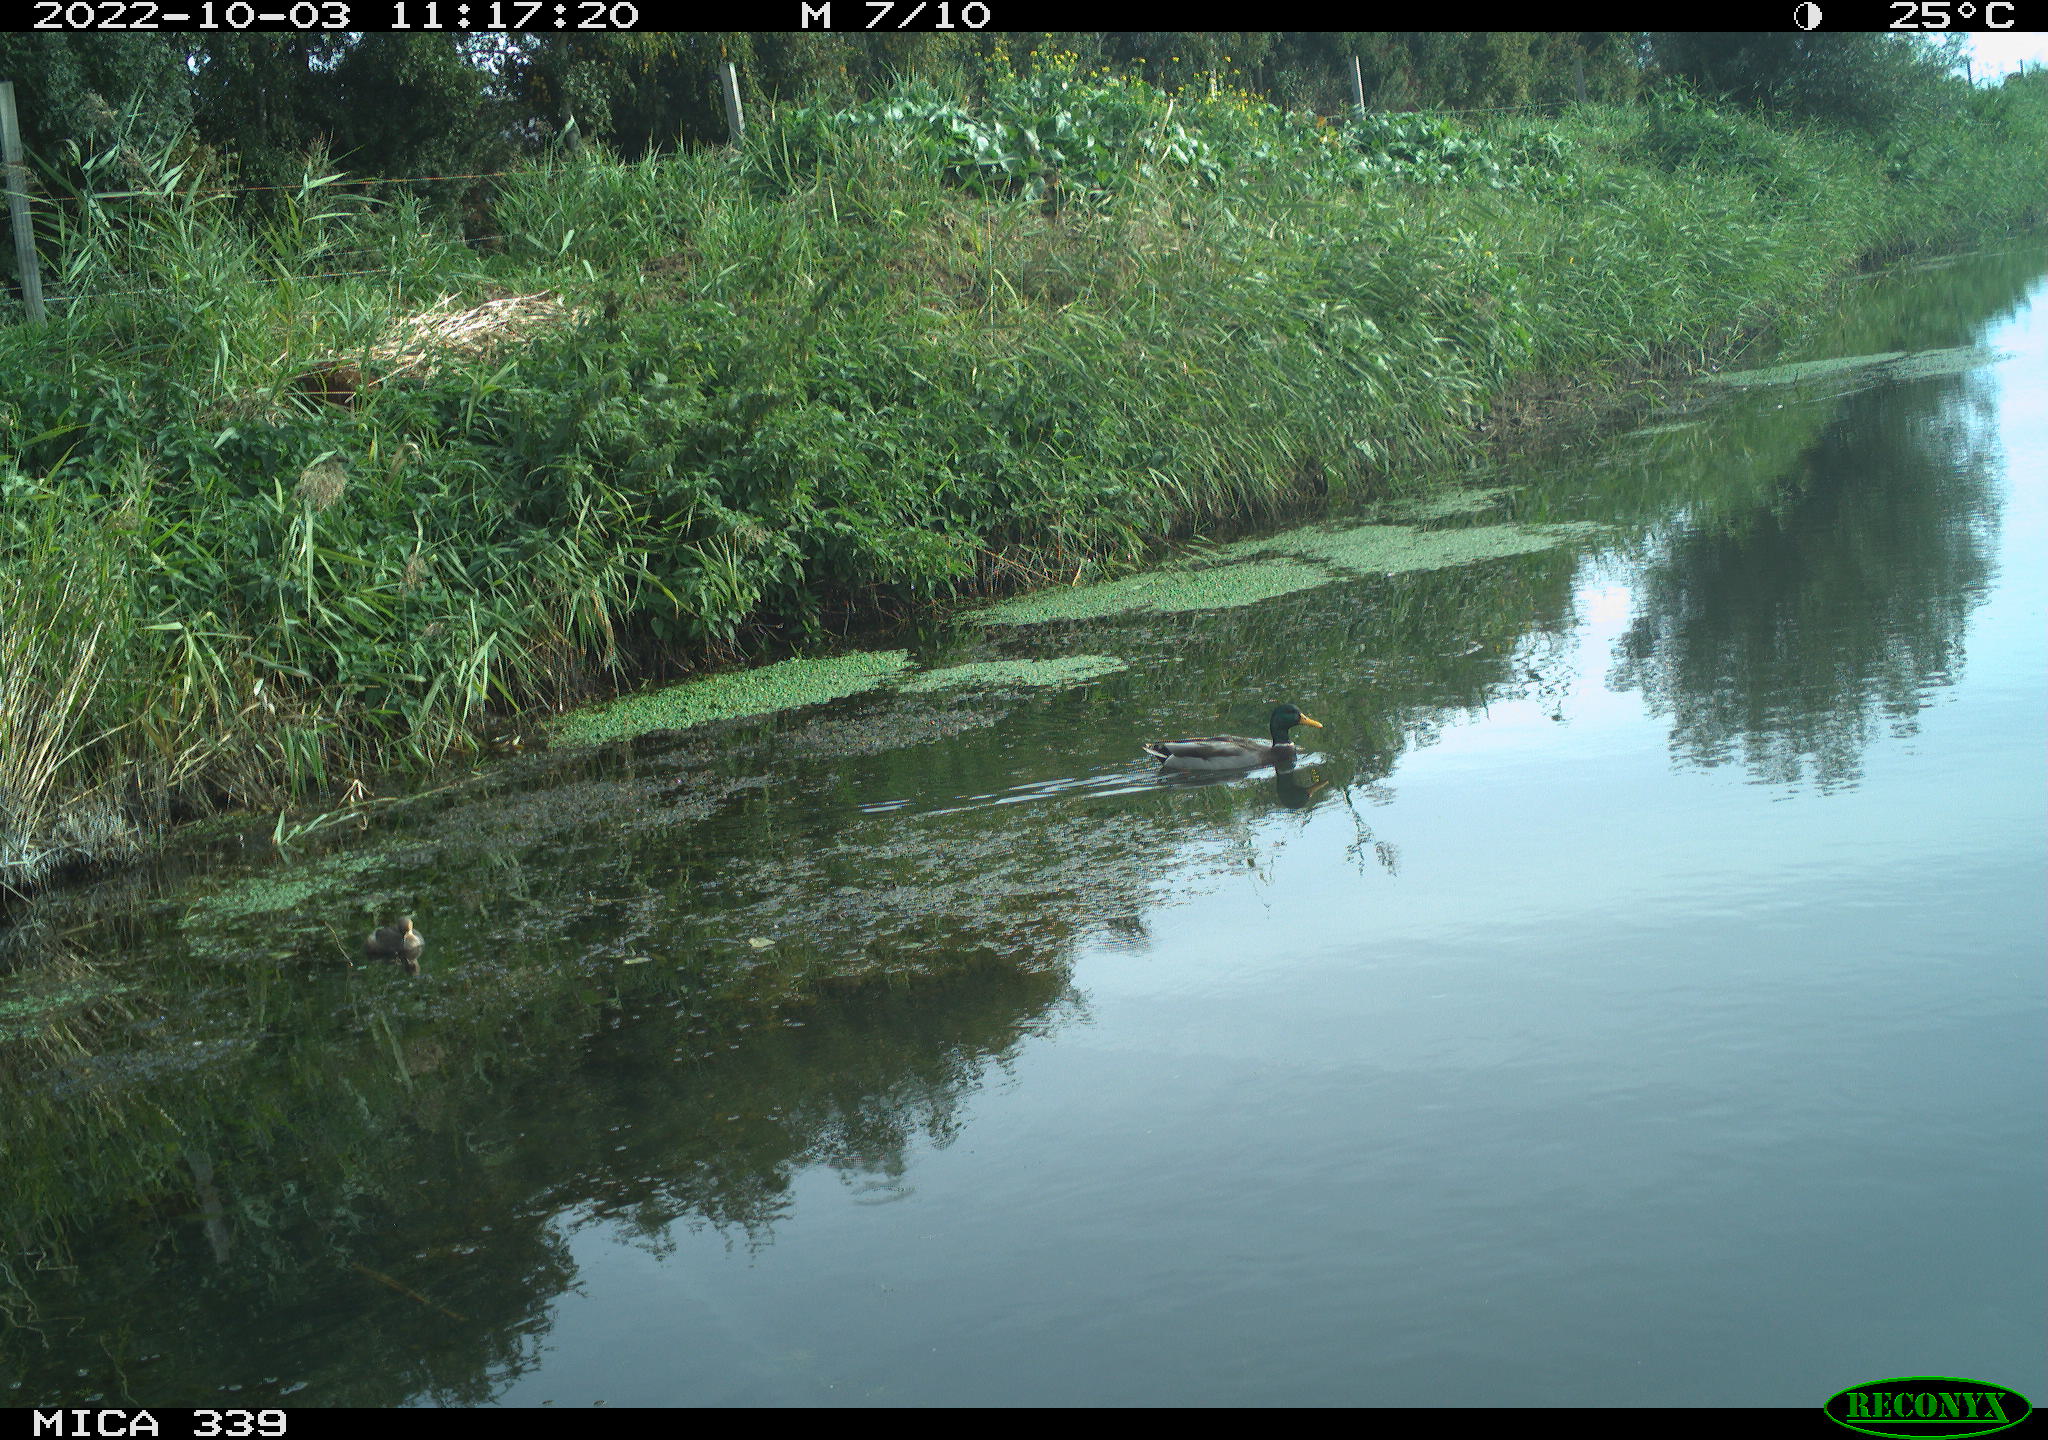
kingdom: Animalia
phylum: Chordata
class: Aves
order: Anseriformes
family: Anatidae
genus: Anas
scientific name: Anas platyrhynchos
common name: Mallard
